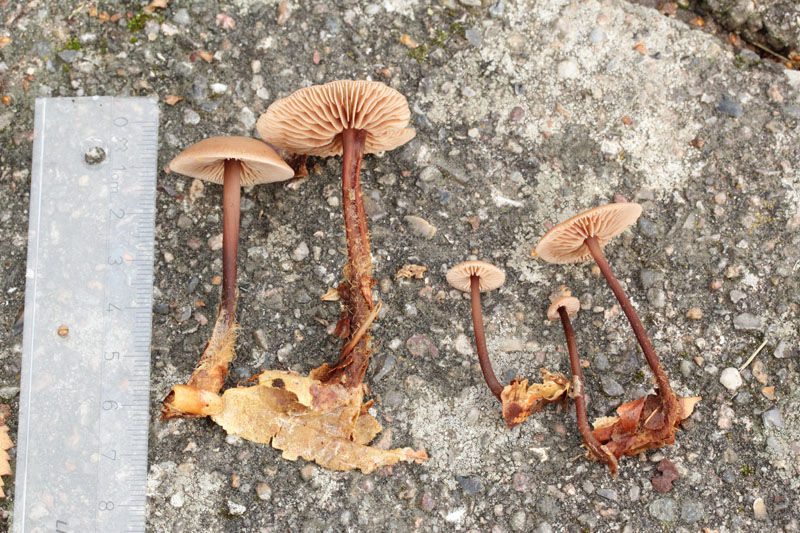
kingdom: Fungi
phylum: Basidiomycota
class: Agaricomycetes
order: Agaricales
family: Omphalotaceae
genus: Gymnopus
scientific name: Gymnopus fuscopurpureus
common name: purpurbrun fladhat
